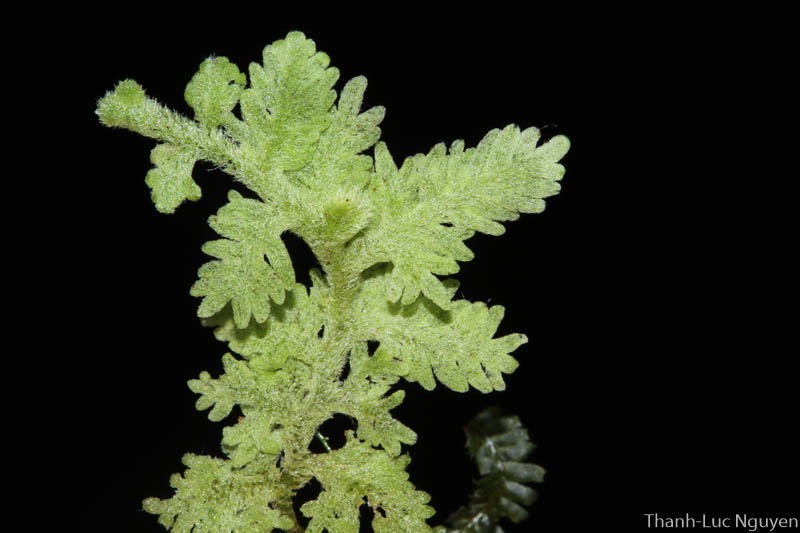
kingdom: Plantae
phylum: Marchantiophyta
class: Jungermanniopsida
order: Jungermanniales
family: Trichocoleaceae
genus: Trichocolea
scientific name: Trichocolea
